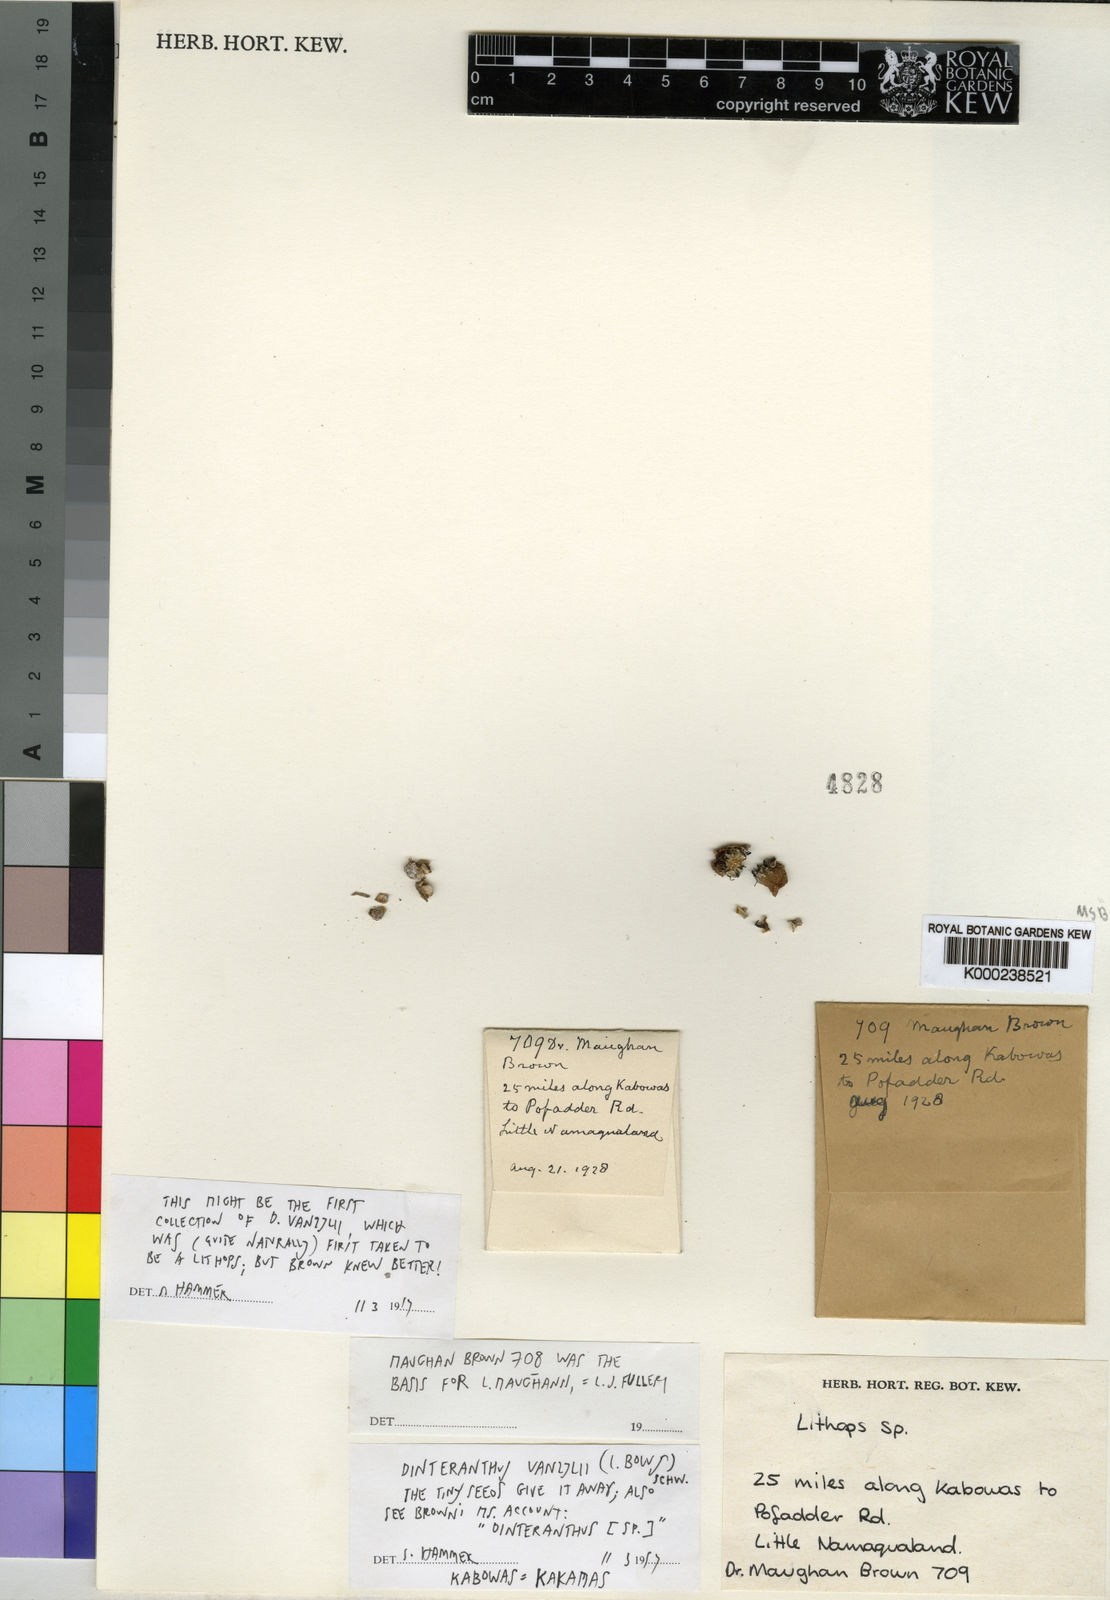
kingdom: Plantae
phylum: Tracheophyta
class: Magnoliopsida
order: Caryophyllales
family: Aizoaceae
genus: Dinteranthus
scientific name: Dinteranthus vanzylii
